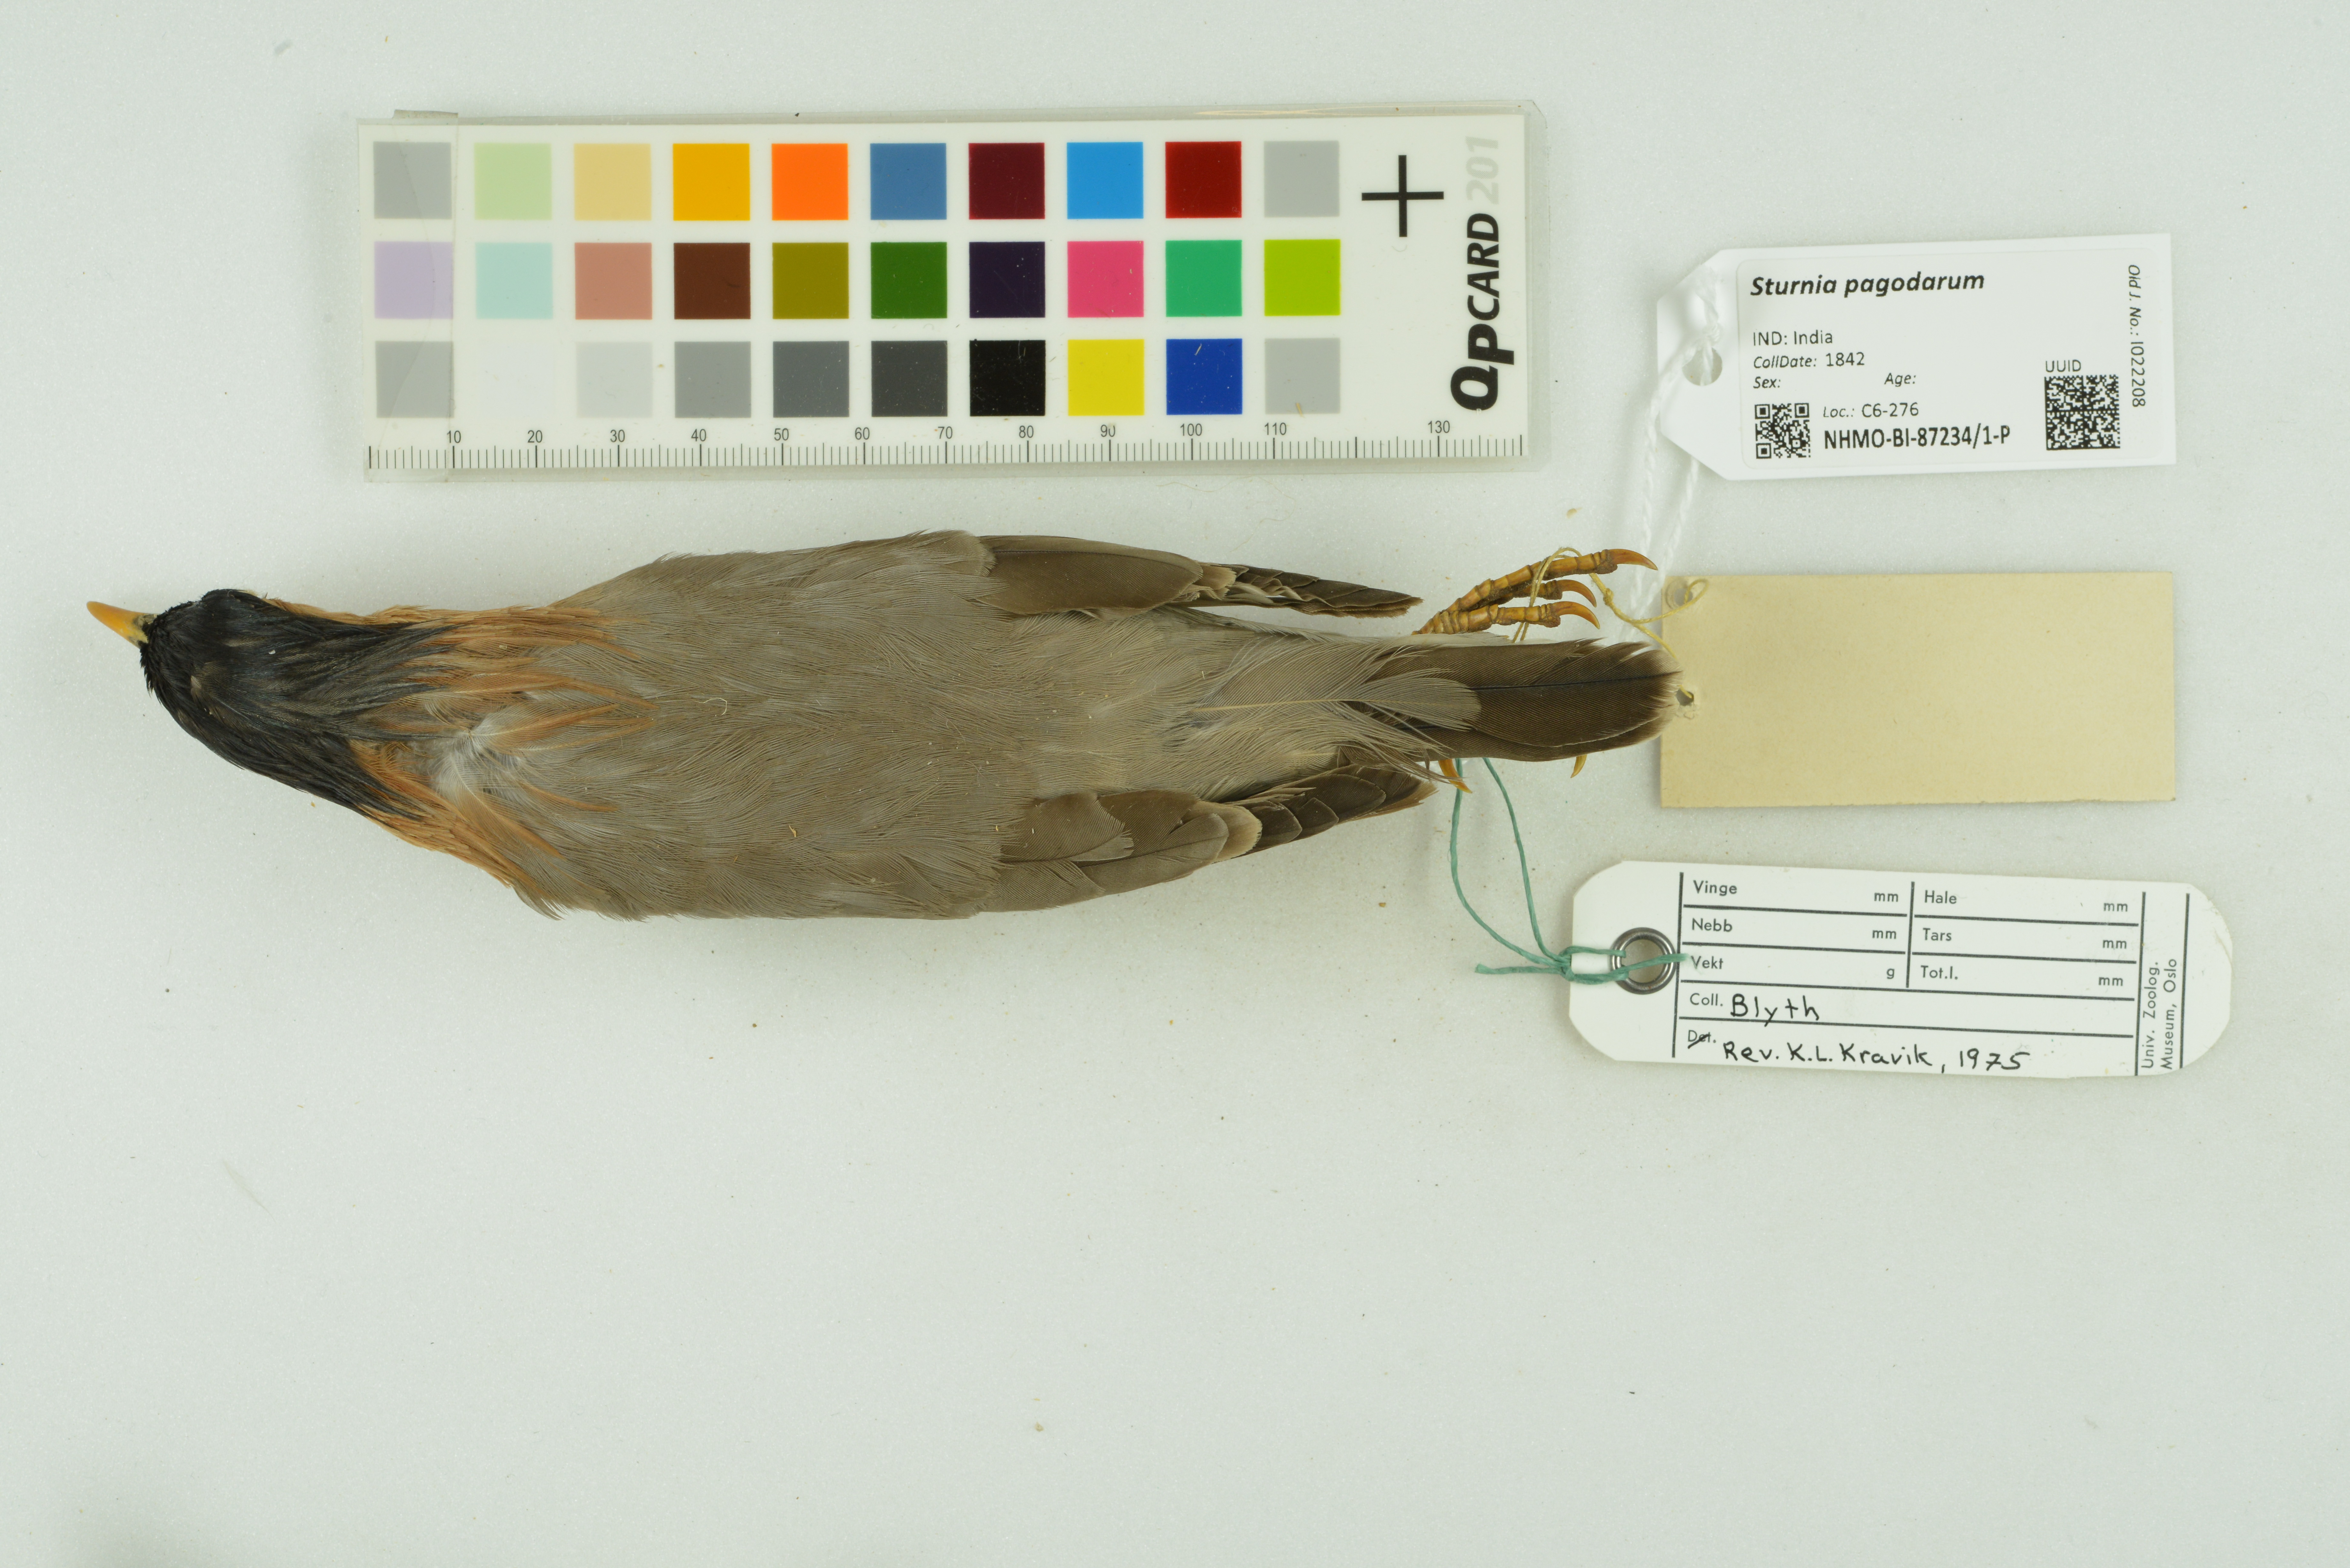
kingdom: Animalia
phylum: Chordata
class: Aves
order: Passeriformes
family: Sturnidae
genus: Sturnia
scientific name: Sturnia pagodarum
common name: Brahminy starling
